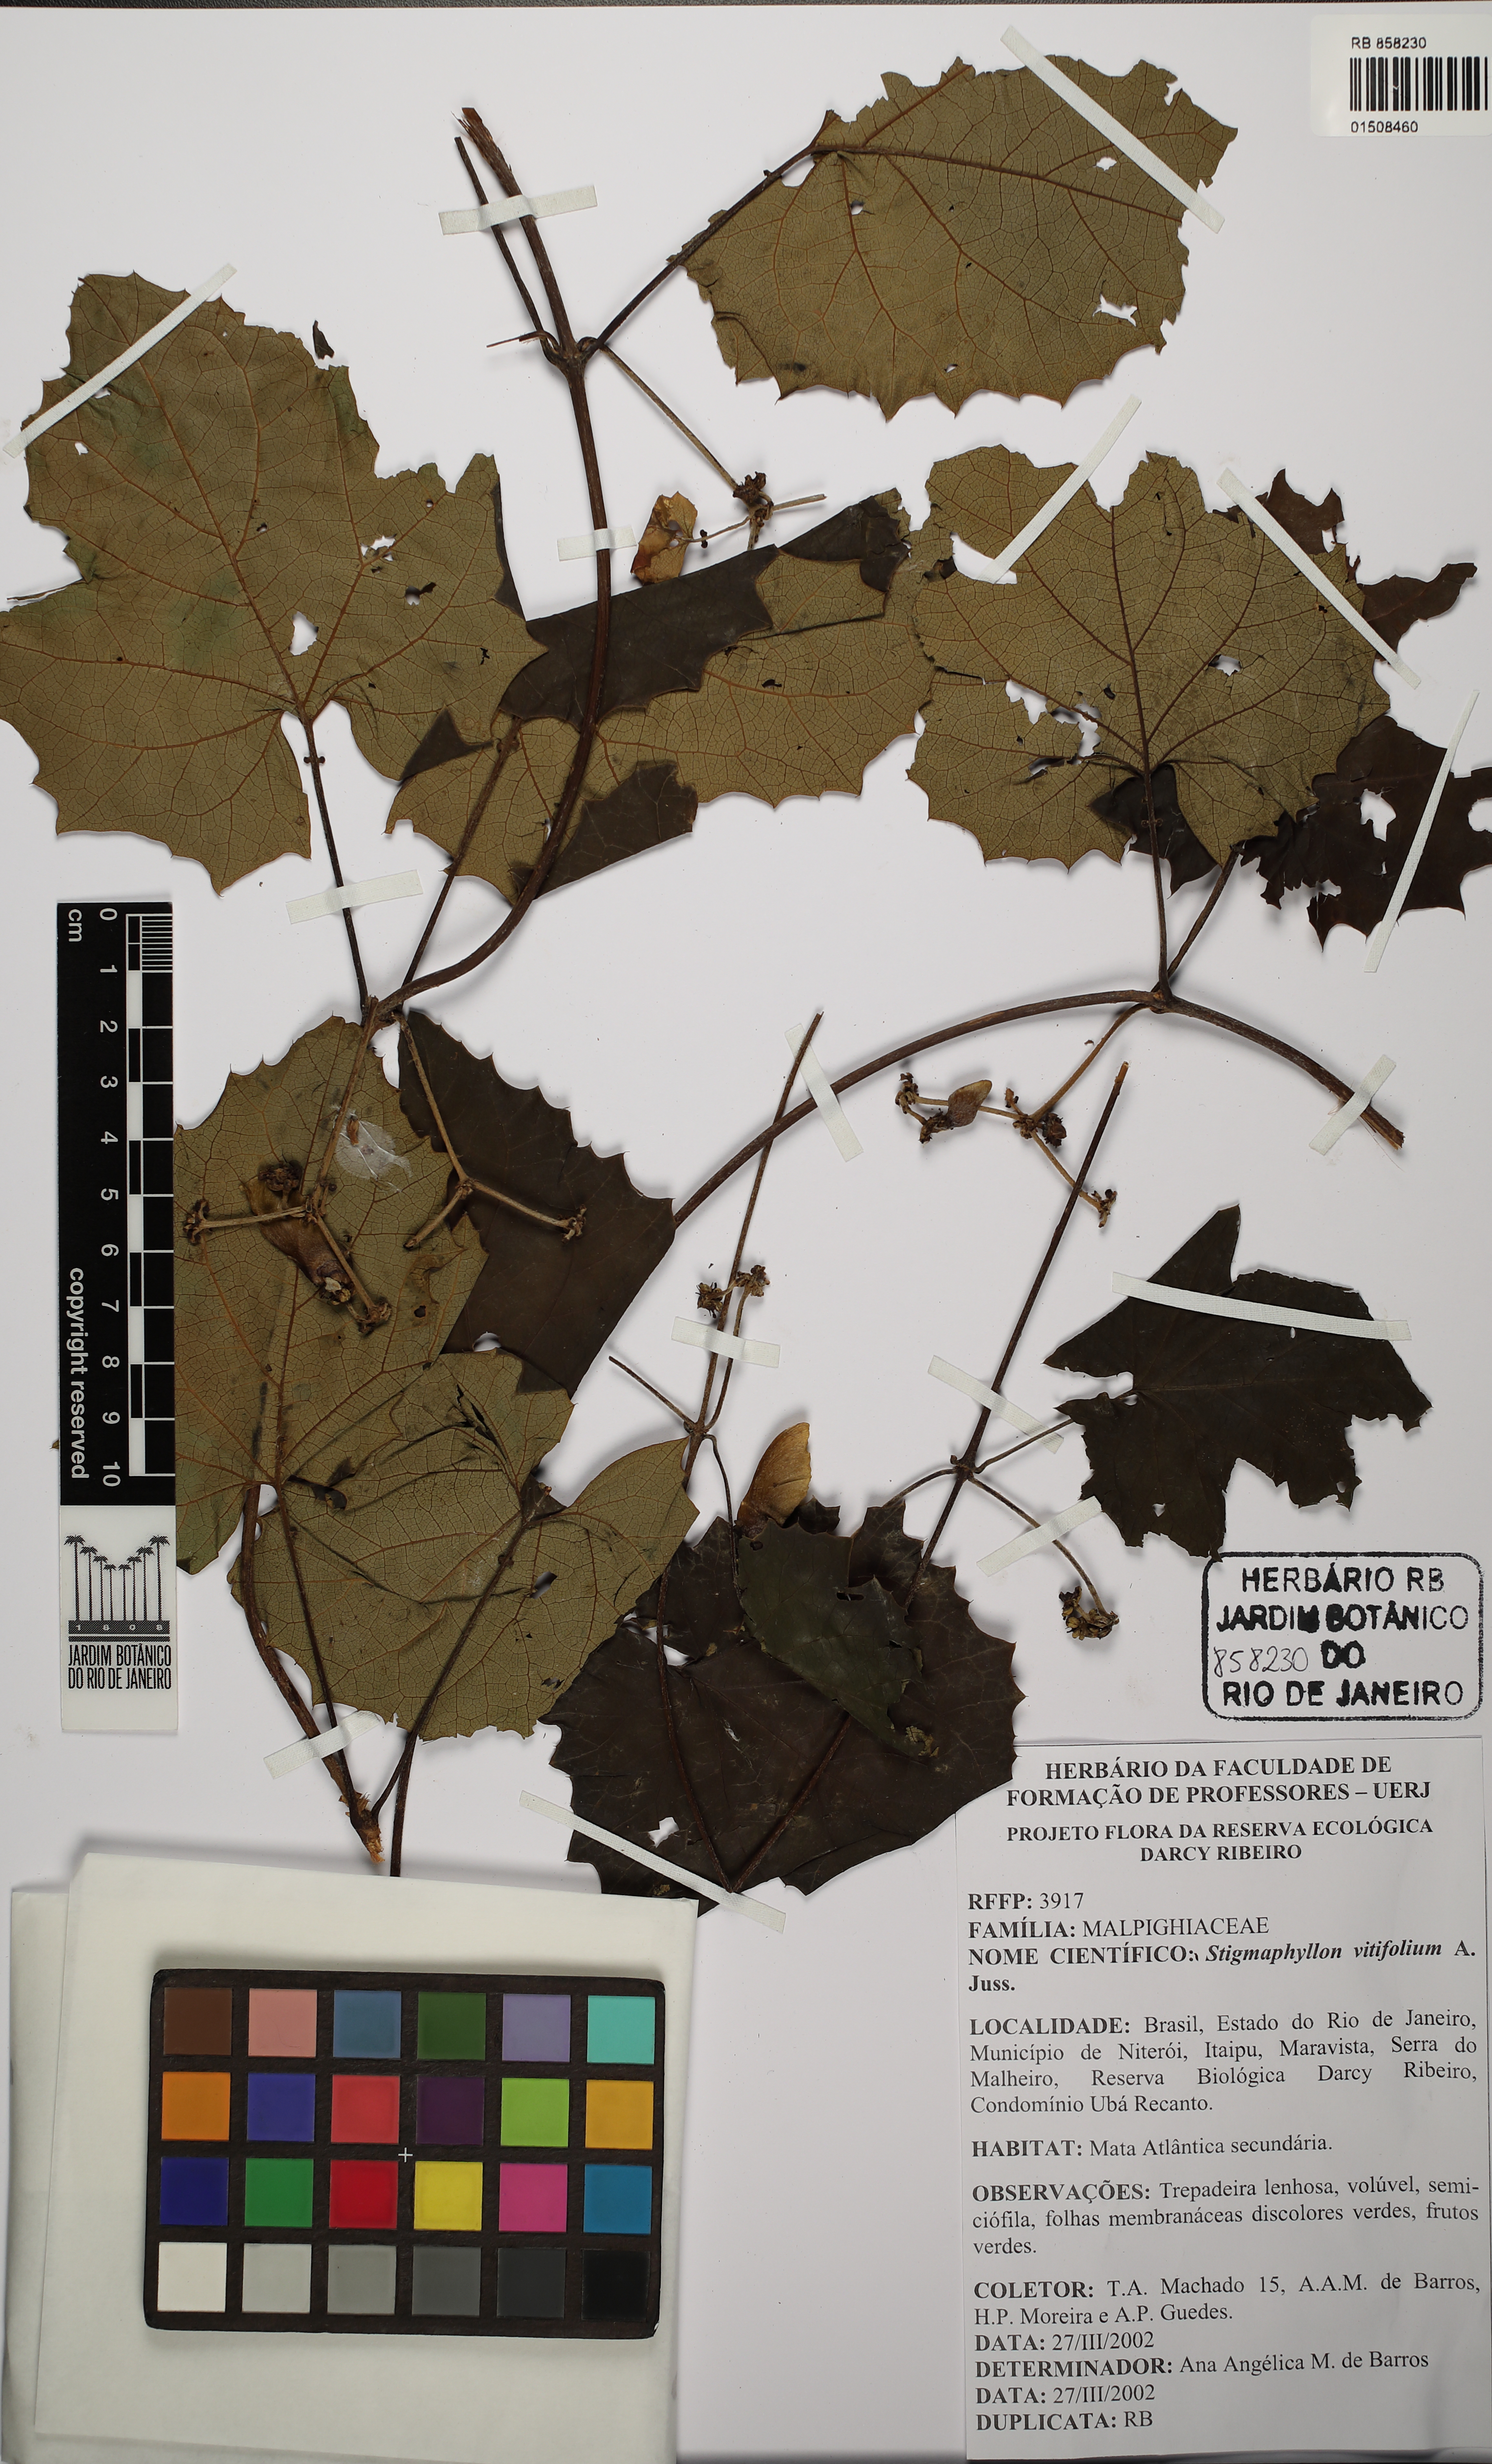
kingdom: Plantae
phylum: Tracheophyta
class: Magnoliopsida
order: Malpighiales
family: Malpighiaceae
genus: Stigmaphyllon
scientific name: Stigmaphyllon vitifolium
